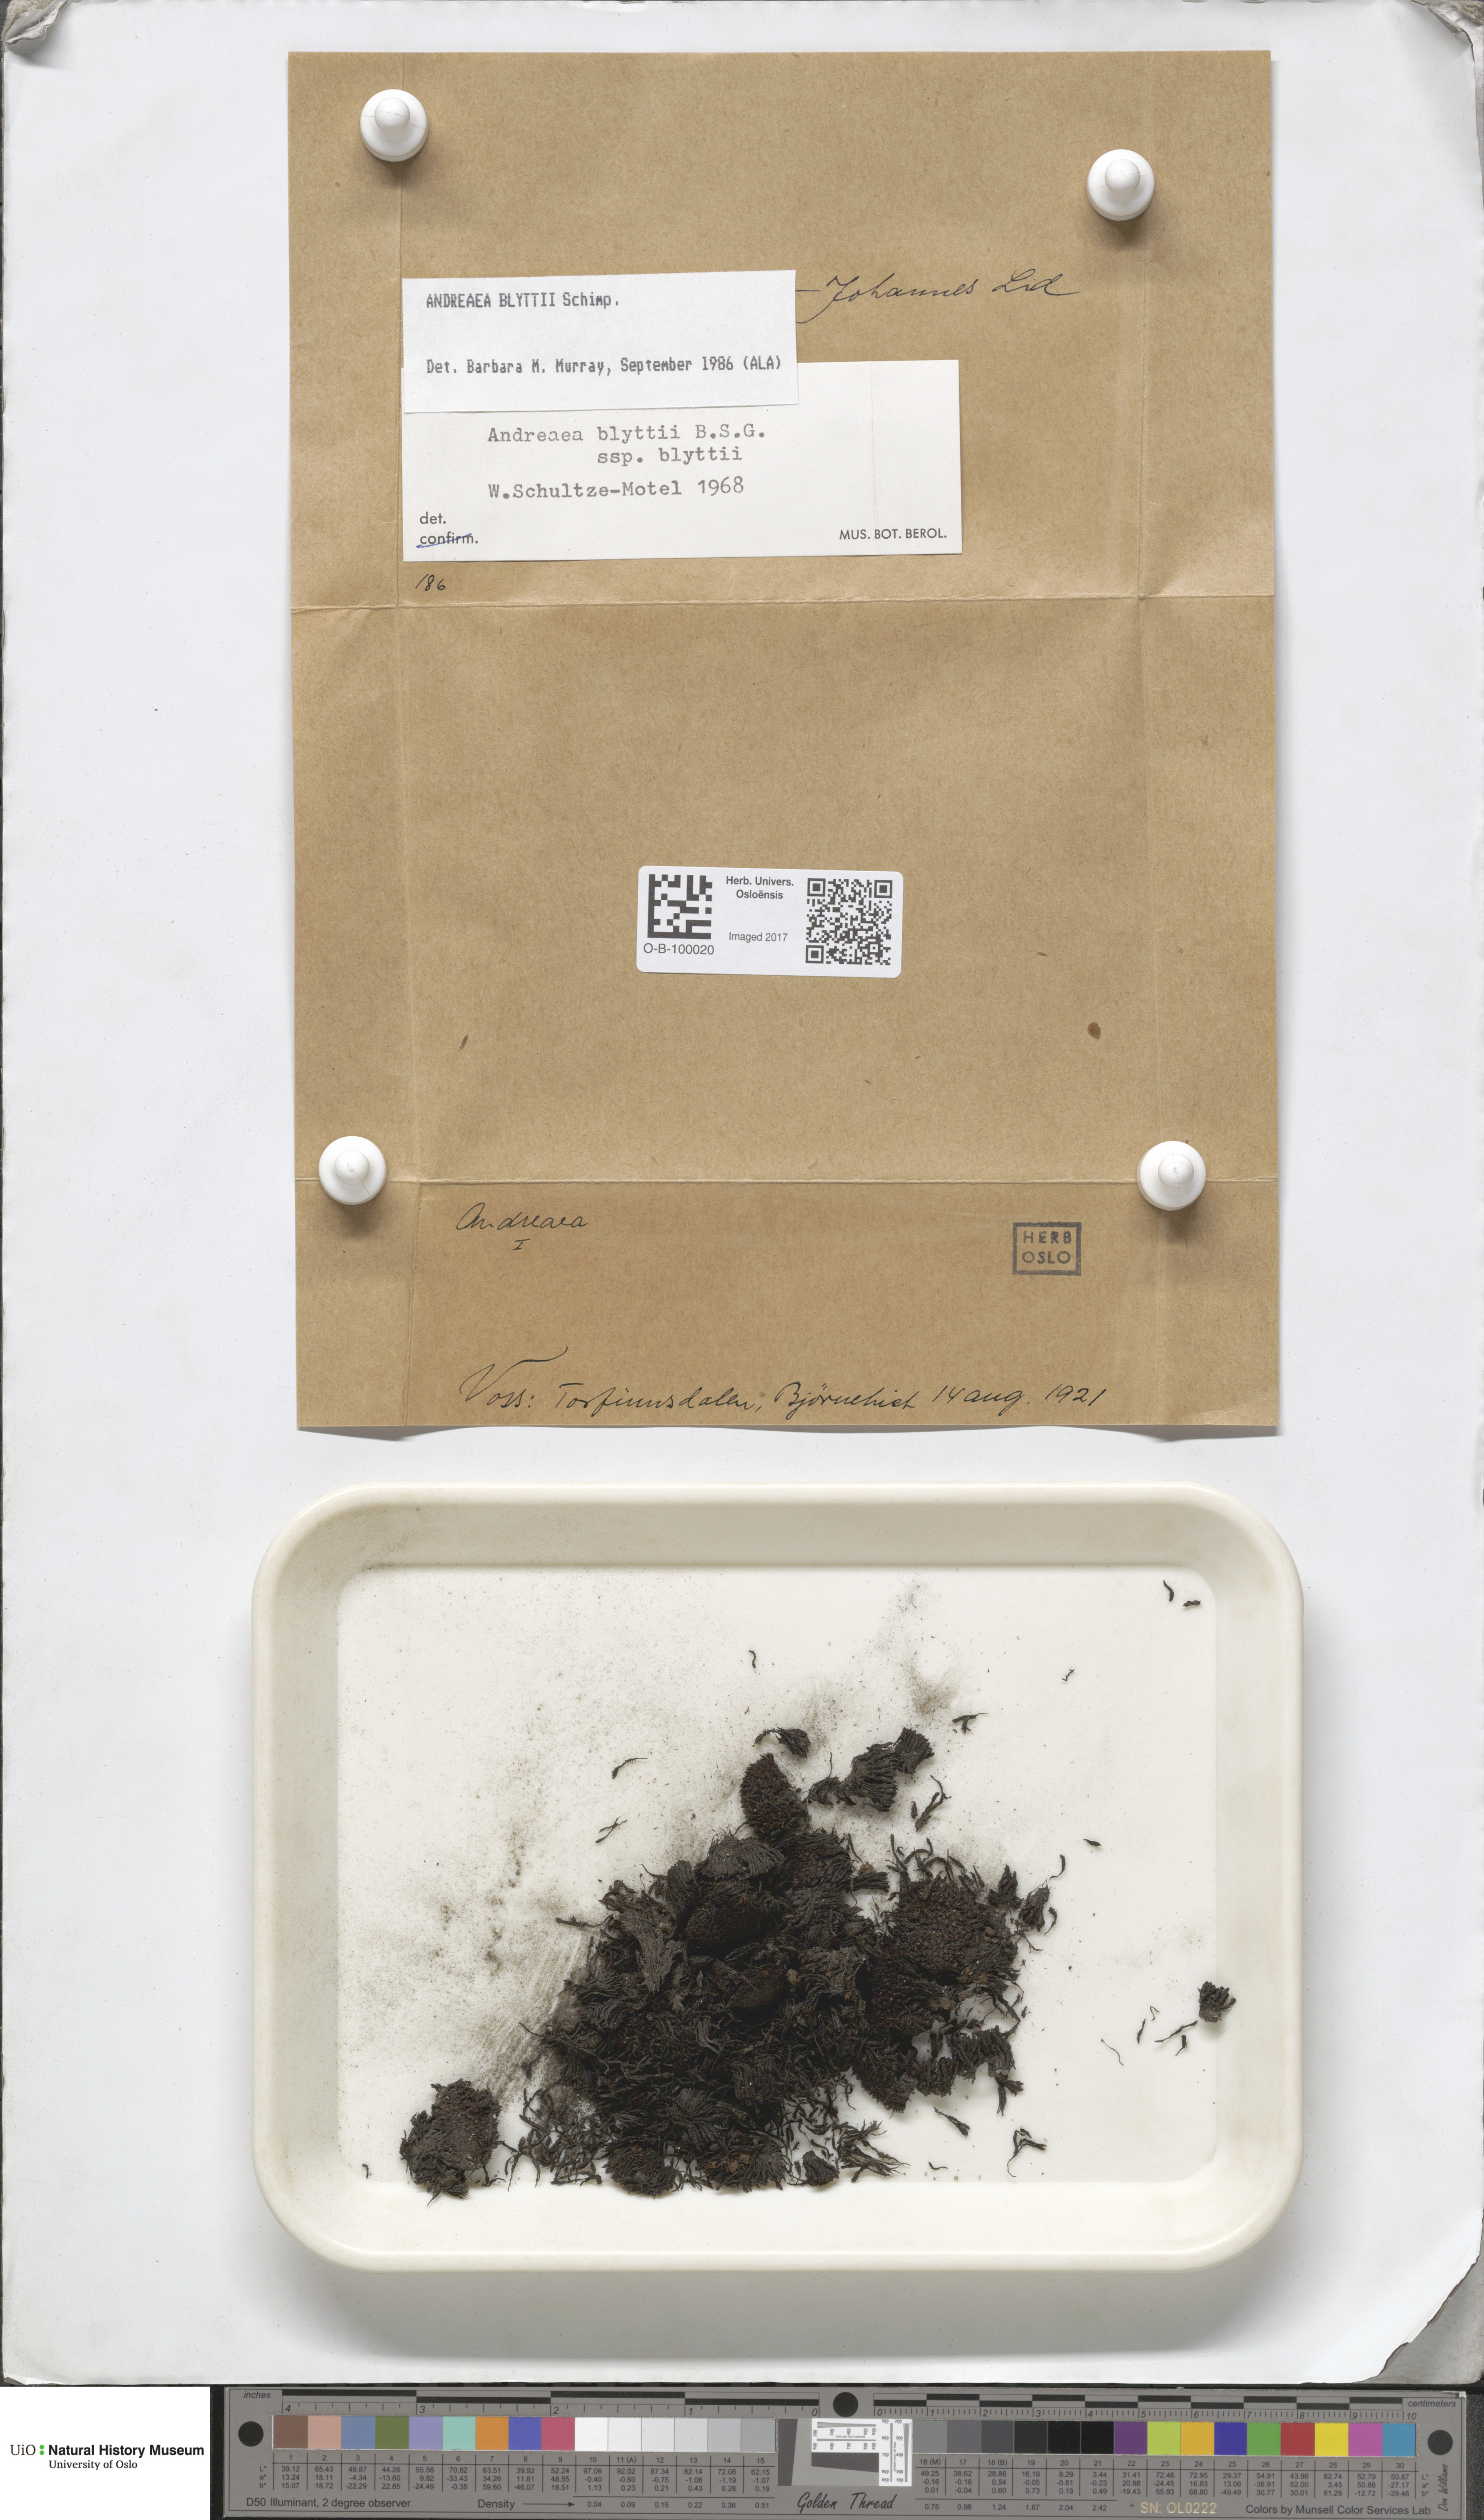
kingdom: Plantae
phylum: Bryophyta
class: Andreaeopsida
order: Andreaeales
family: Andreaeaceae
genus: Andreaea
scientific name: Andreaea hookeri
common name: Alpine rock-moss
